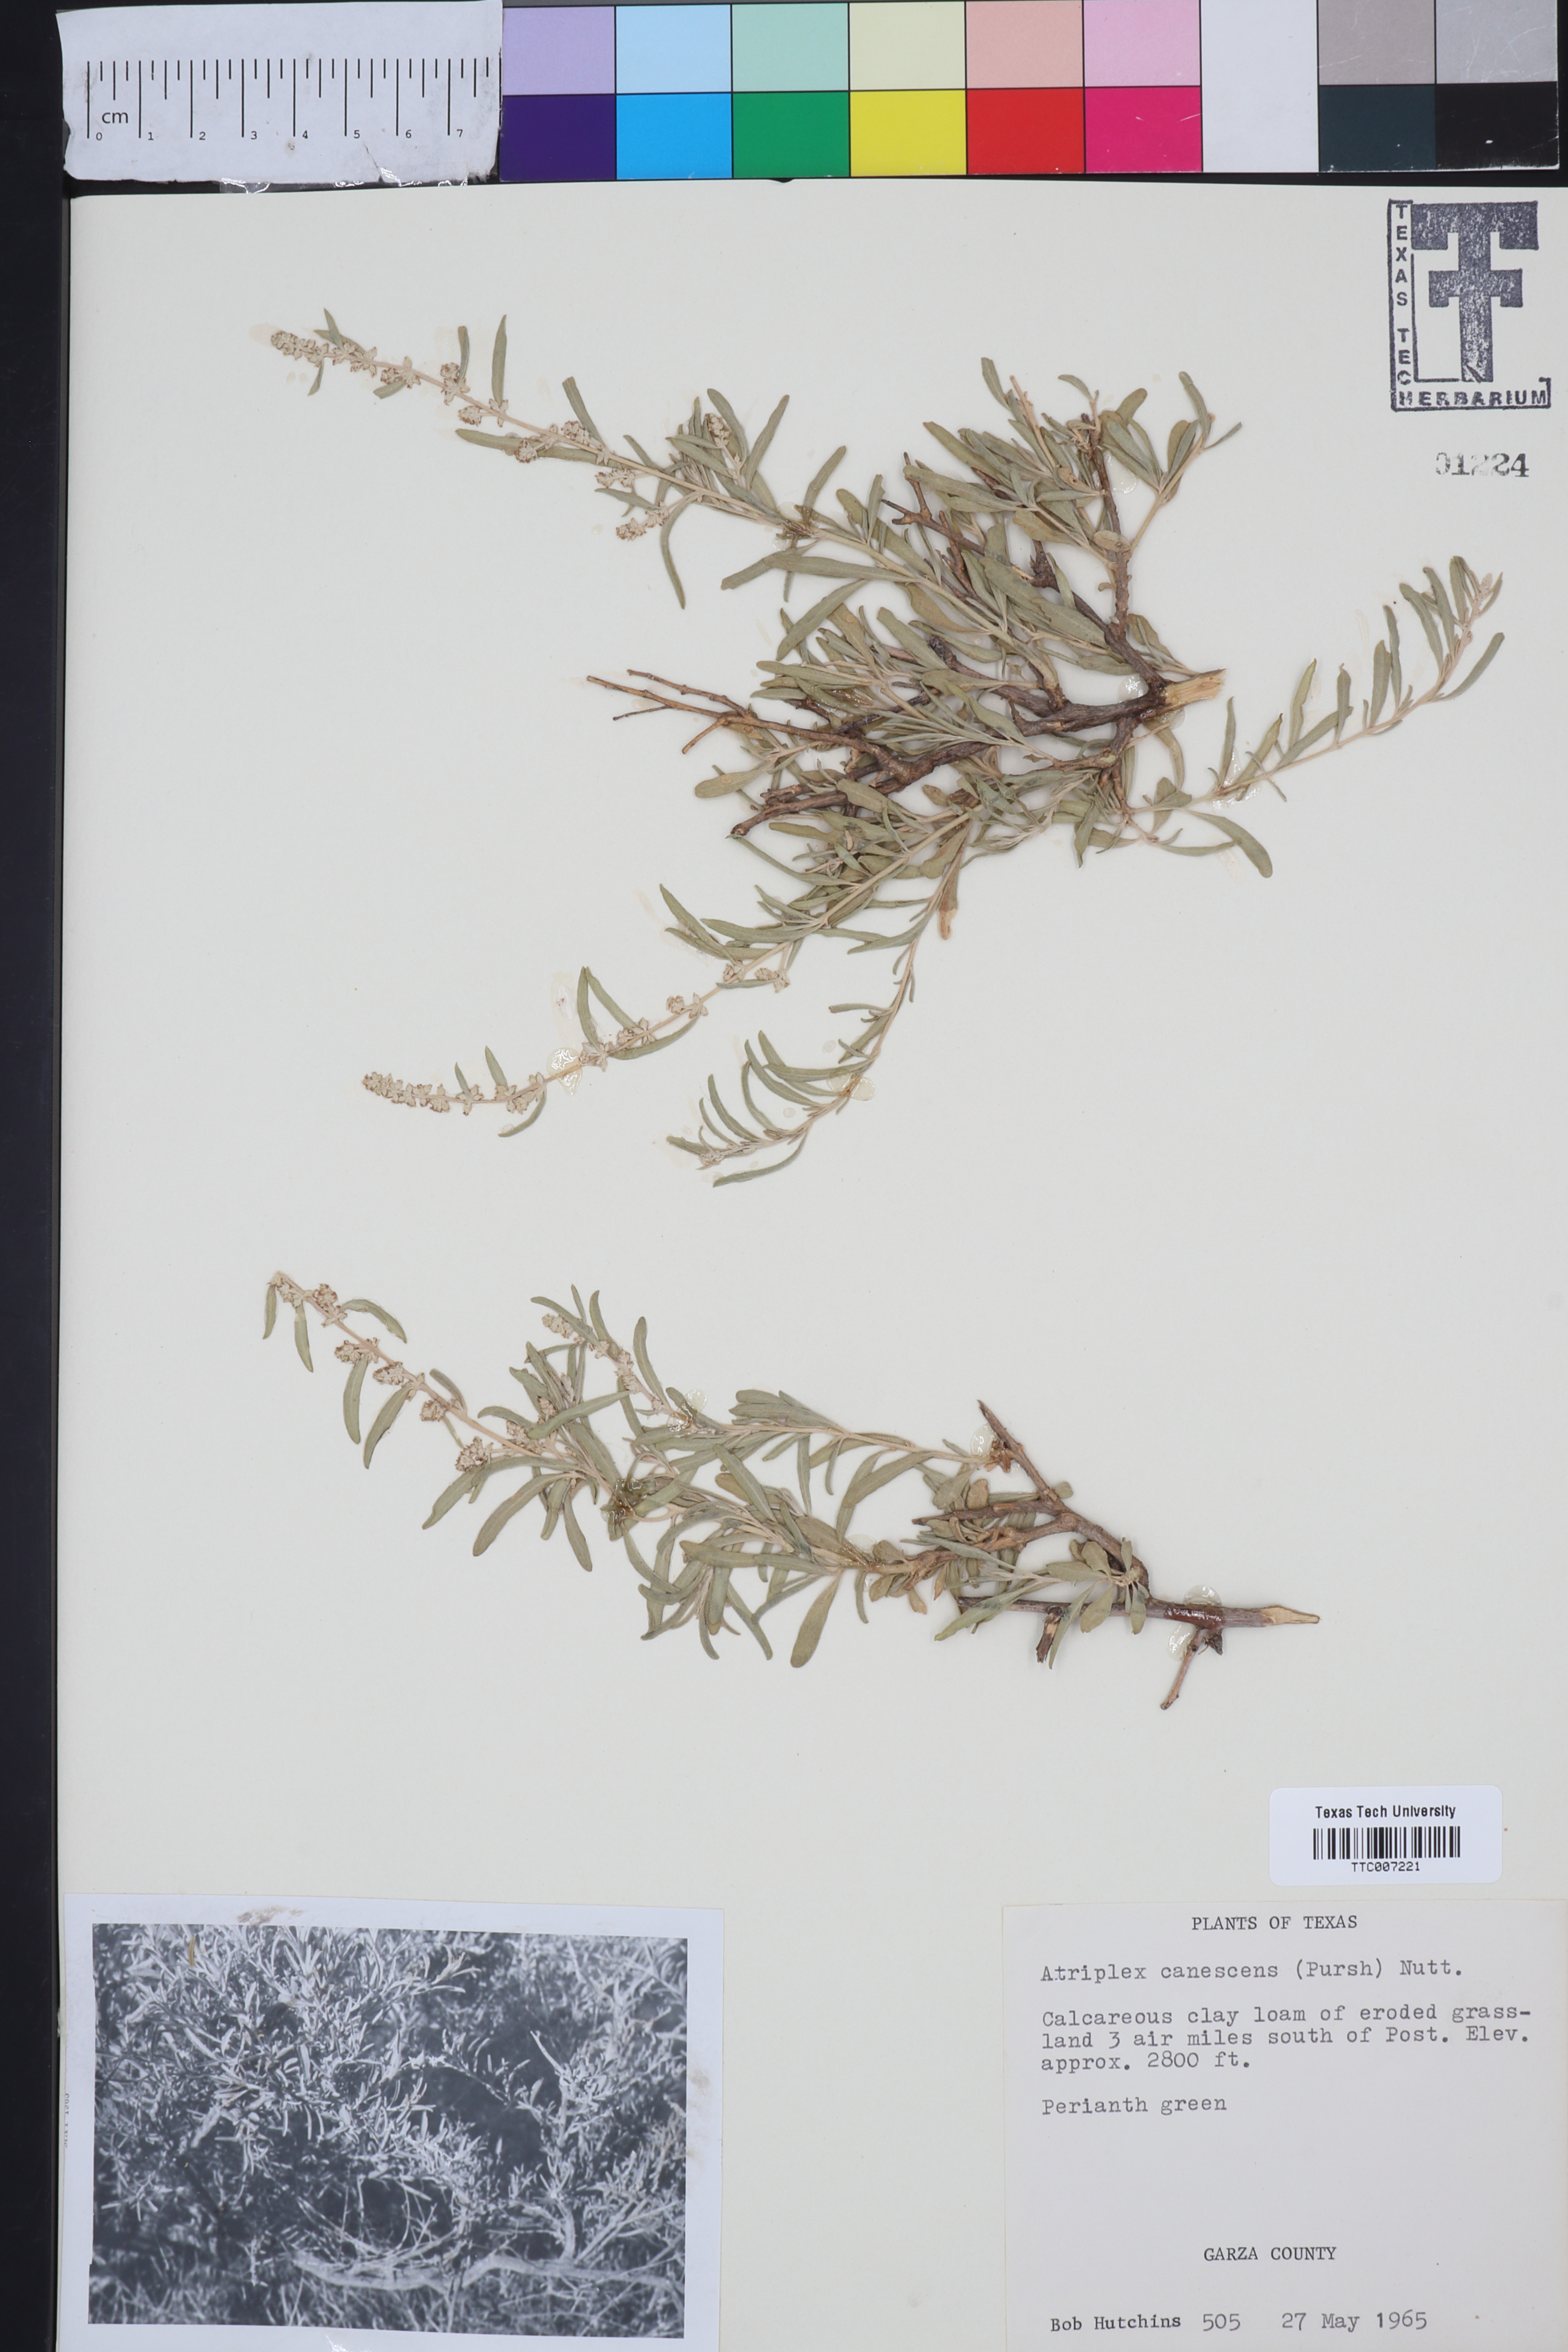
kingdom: Plantae
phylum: Tracheophyta
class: Magnoliopsida
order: Caryophyllales
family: Amaranthaceae
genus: Atriplex
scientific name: Atriplex canescens
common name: Four-wing saltbush
